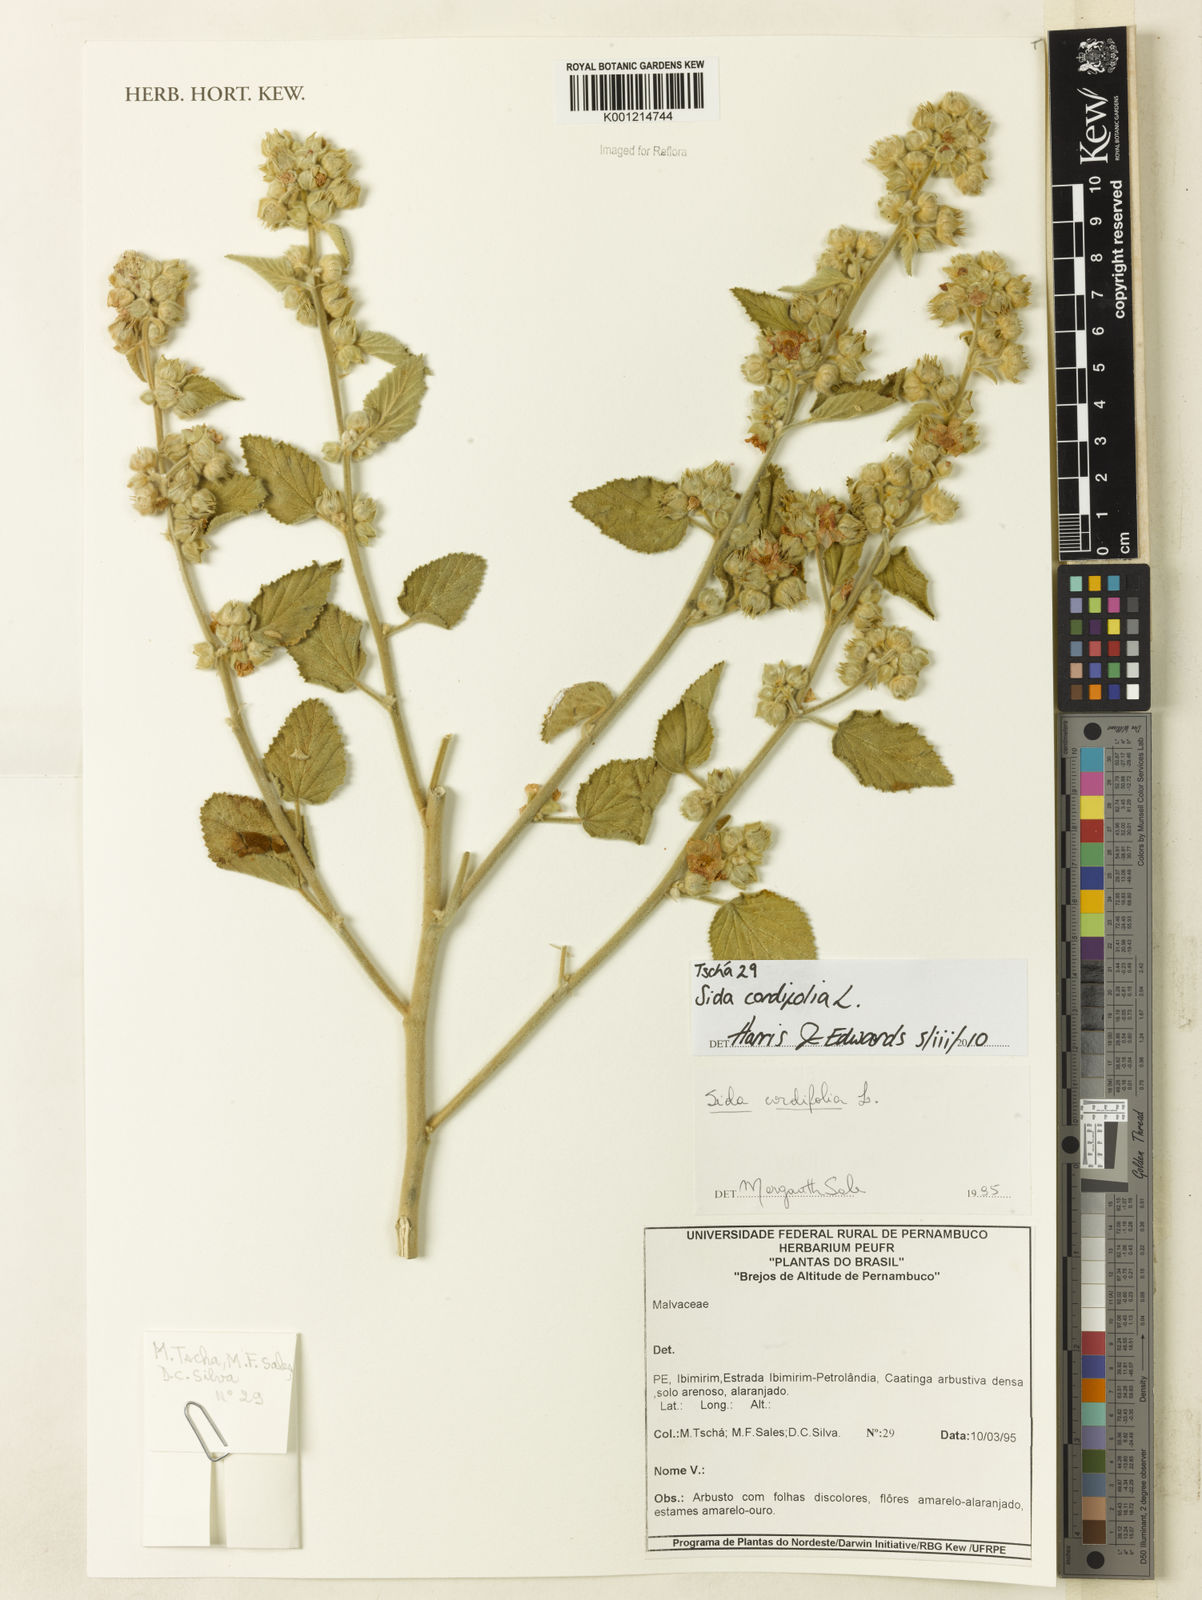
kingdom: Plantae
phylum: Tracheophyta
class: Magnoliopsida
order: Malvales
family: Malvaceae
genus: Sida
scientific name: Sida cordifolia
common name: Ilima
